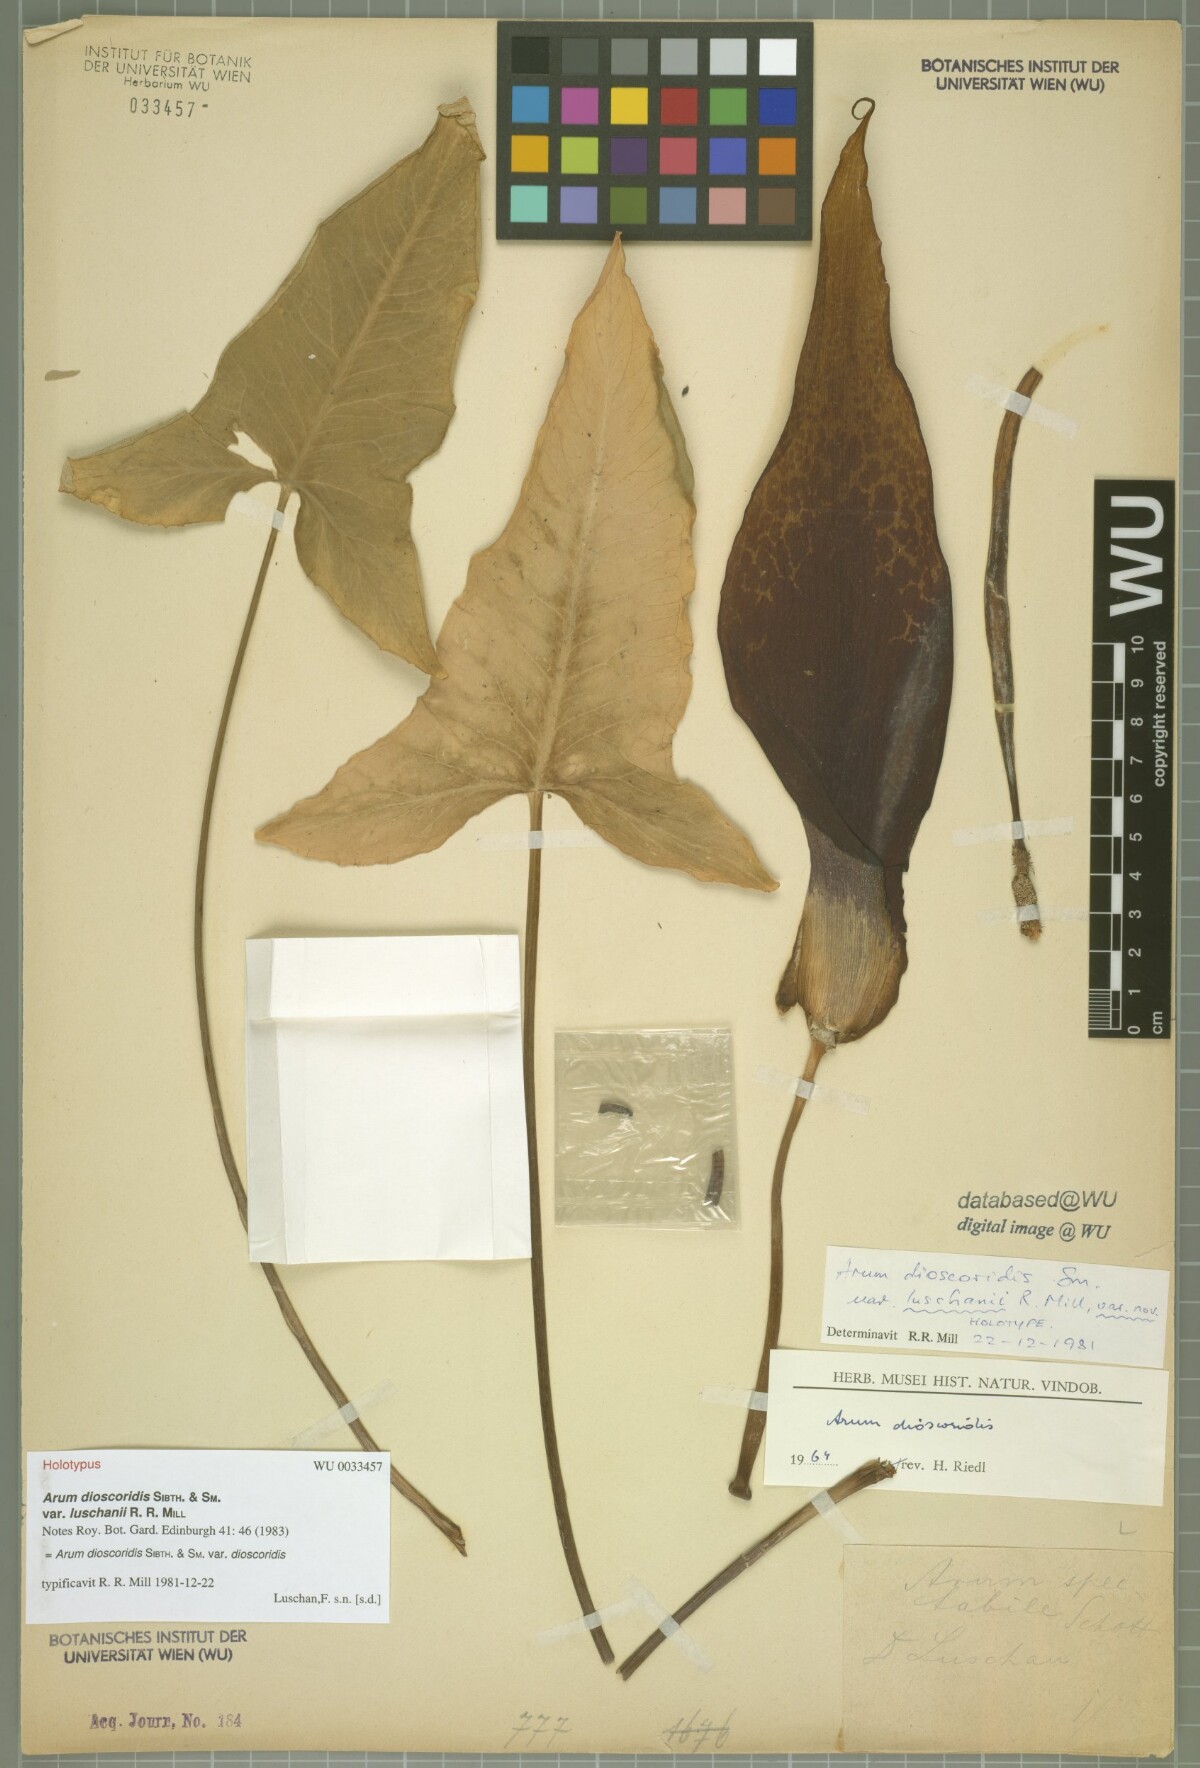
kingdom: Plantae
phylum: Tracheophyta
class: Liliopsida
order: Alismatales
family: Araceae
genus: Arum
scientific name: Arum dioscoridis
